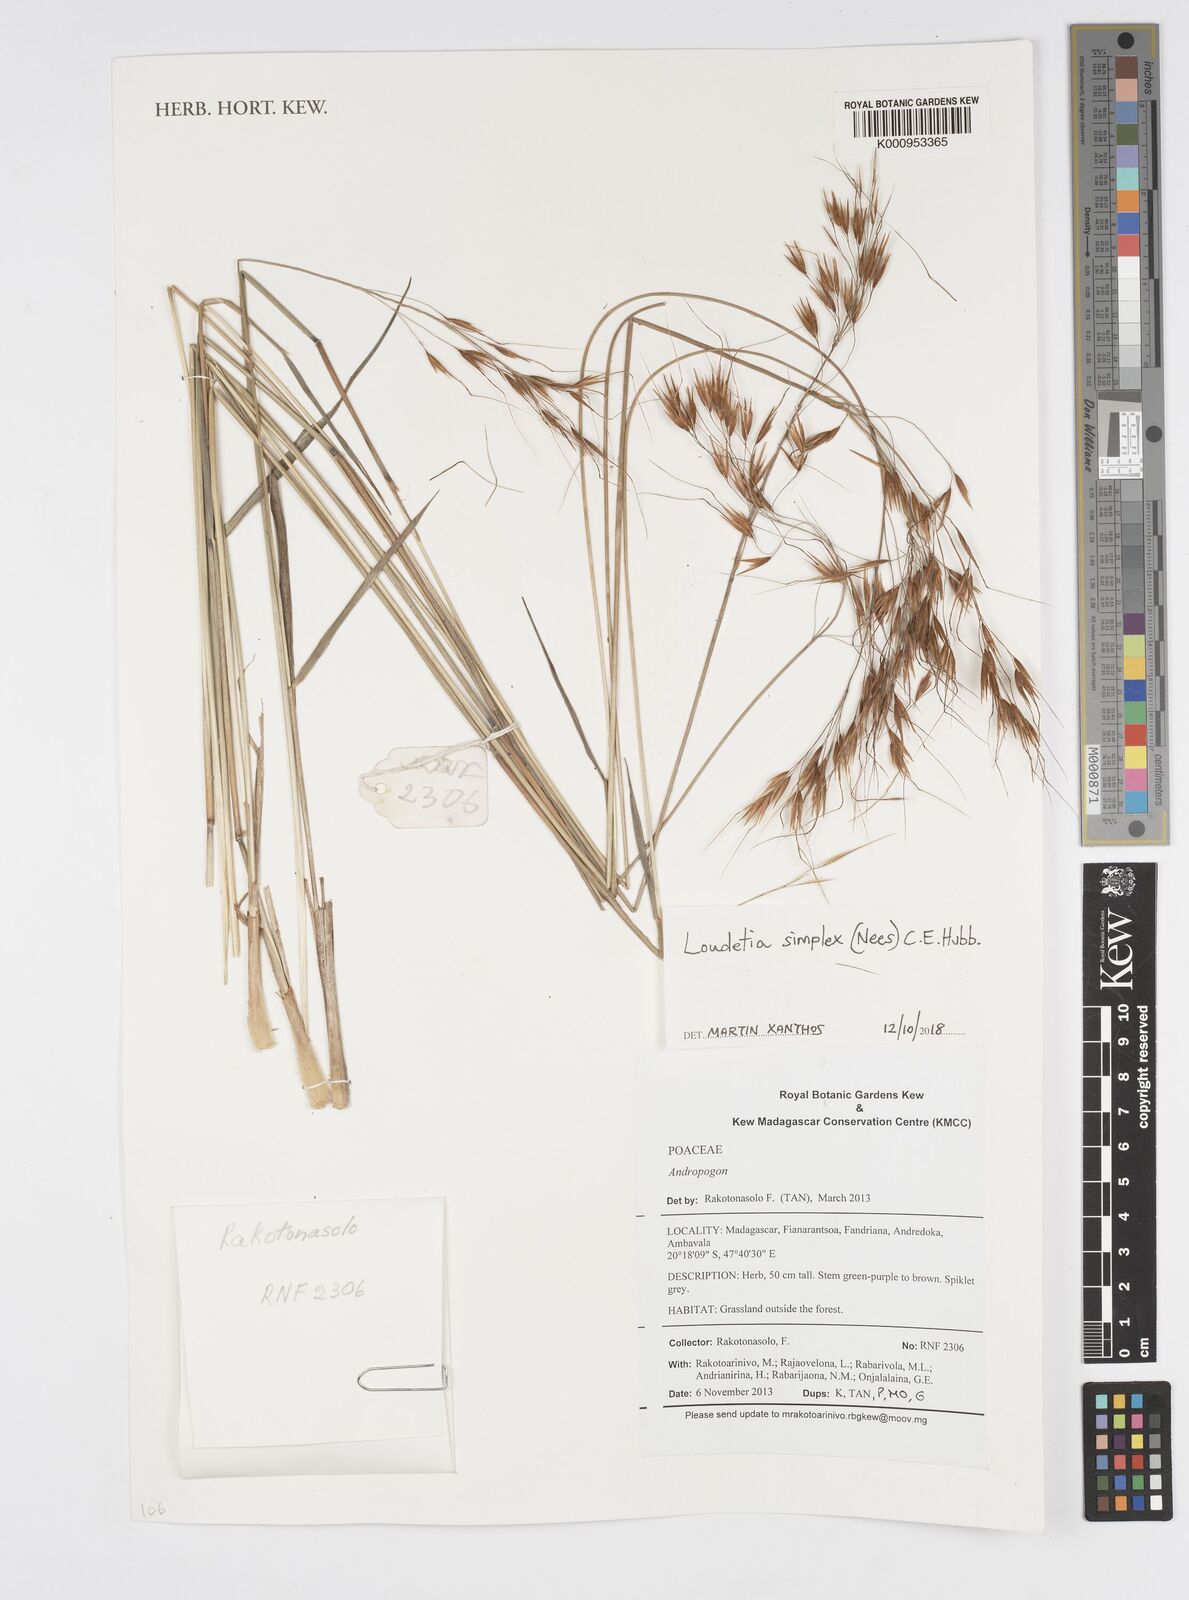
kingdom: Plantae
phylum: Tracheophyta
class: Liliopsida
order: Poales
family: Poaceae
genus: Loudetia
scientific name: Loudetia simplex
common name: Common russet grass
